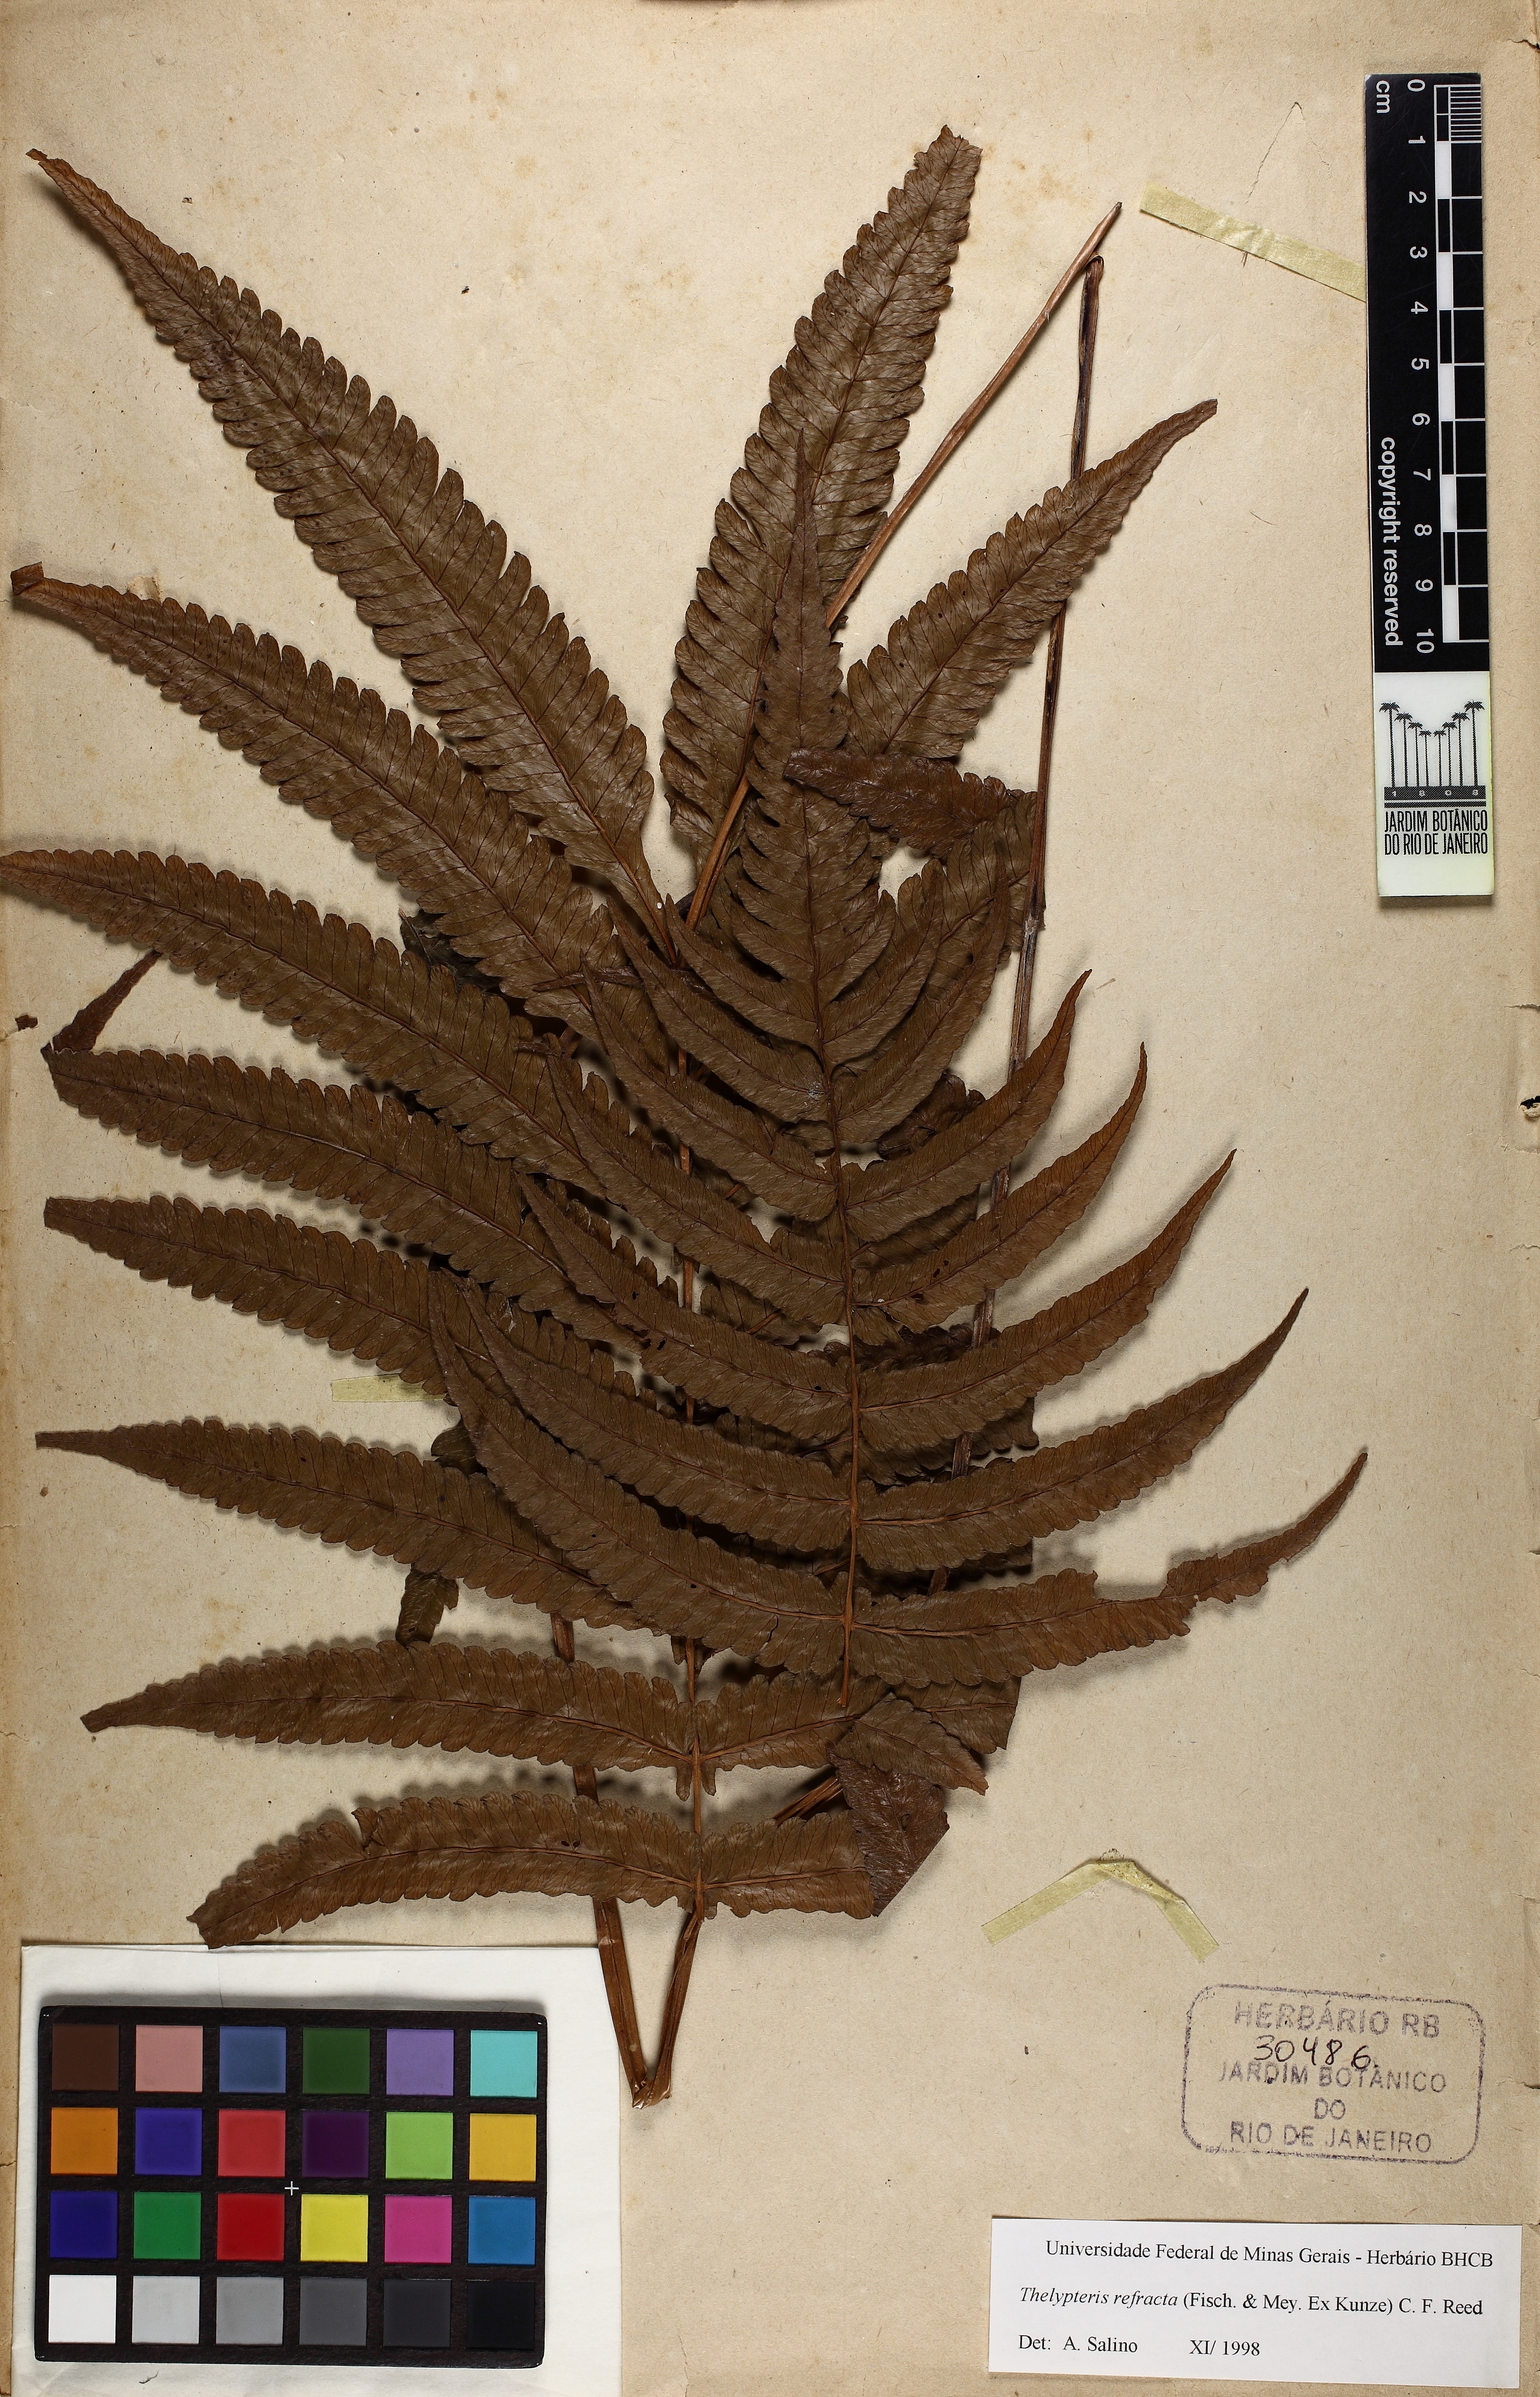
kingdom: Plantae
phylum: Tracheophyta
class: Polypodiopsida
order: Polypodiales
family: Thelypteridaceae
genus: Goniopteris
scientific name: Goniopteris refracta
